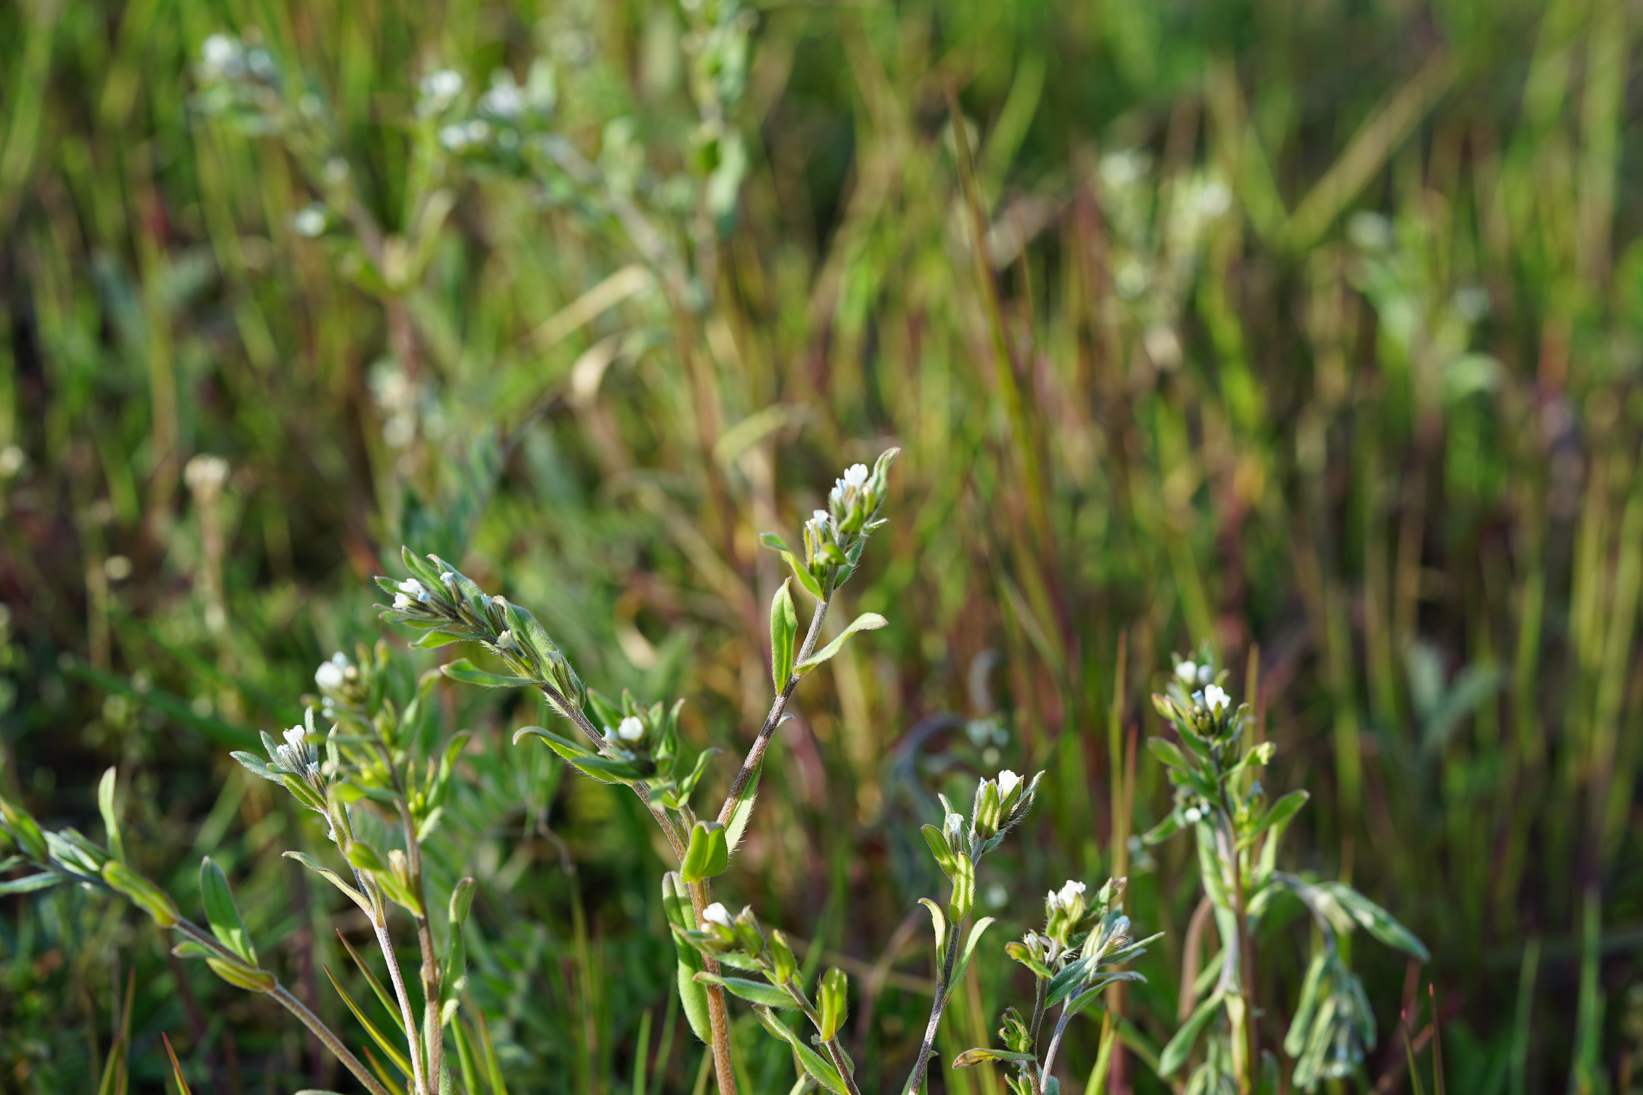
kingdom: Plantae
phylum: Tracheophyta
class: Magnoliopsida
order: Boraginales
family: Boraginaceae
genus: Buglossoides
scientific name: Buglossoides arvensis
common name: Corn gromwell
